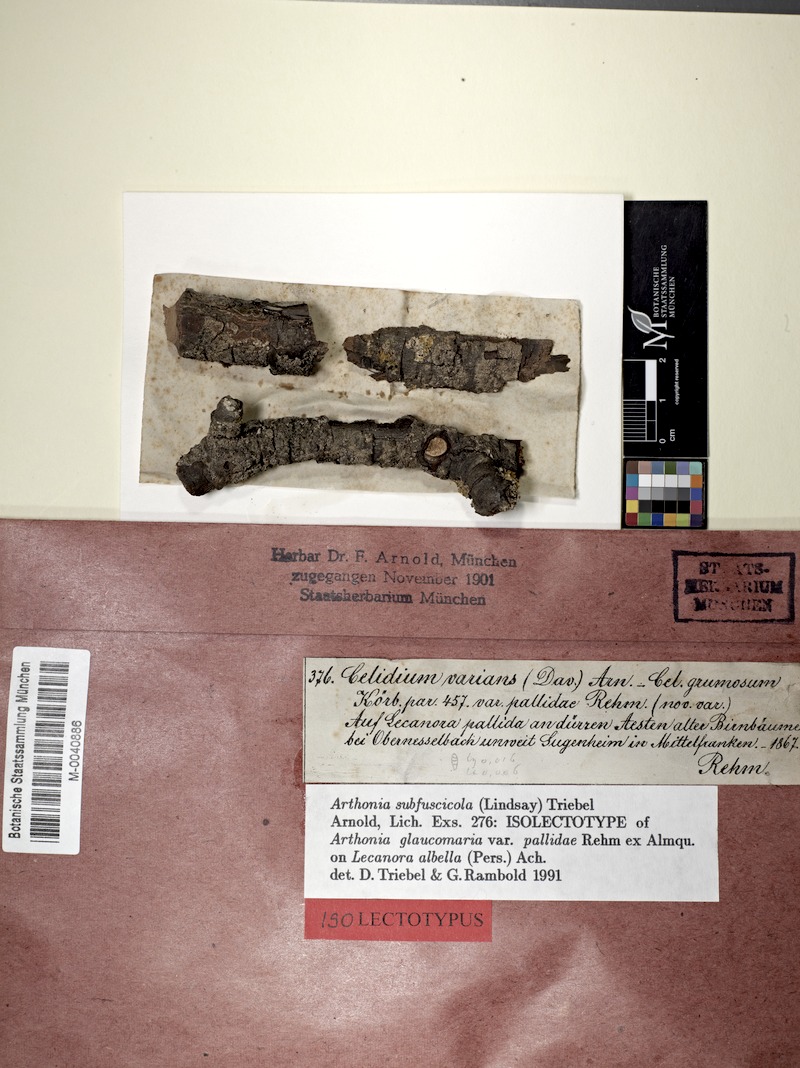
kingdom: Fungi
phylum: Ascomycota
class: Arthoniomycetes
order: Arthoniales
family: Arthoniaceae
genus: Arthonia
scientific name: Arthonia subfuscicola
